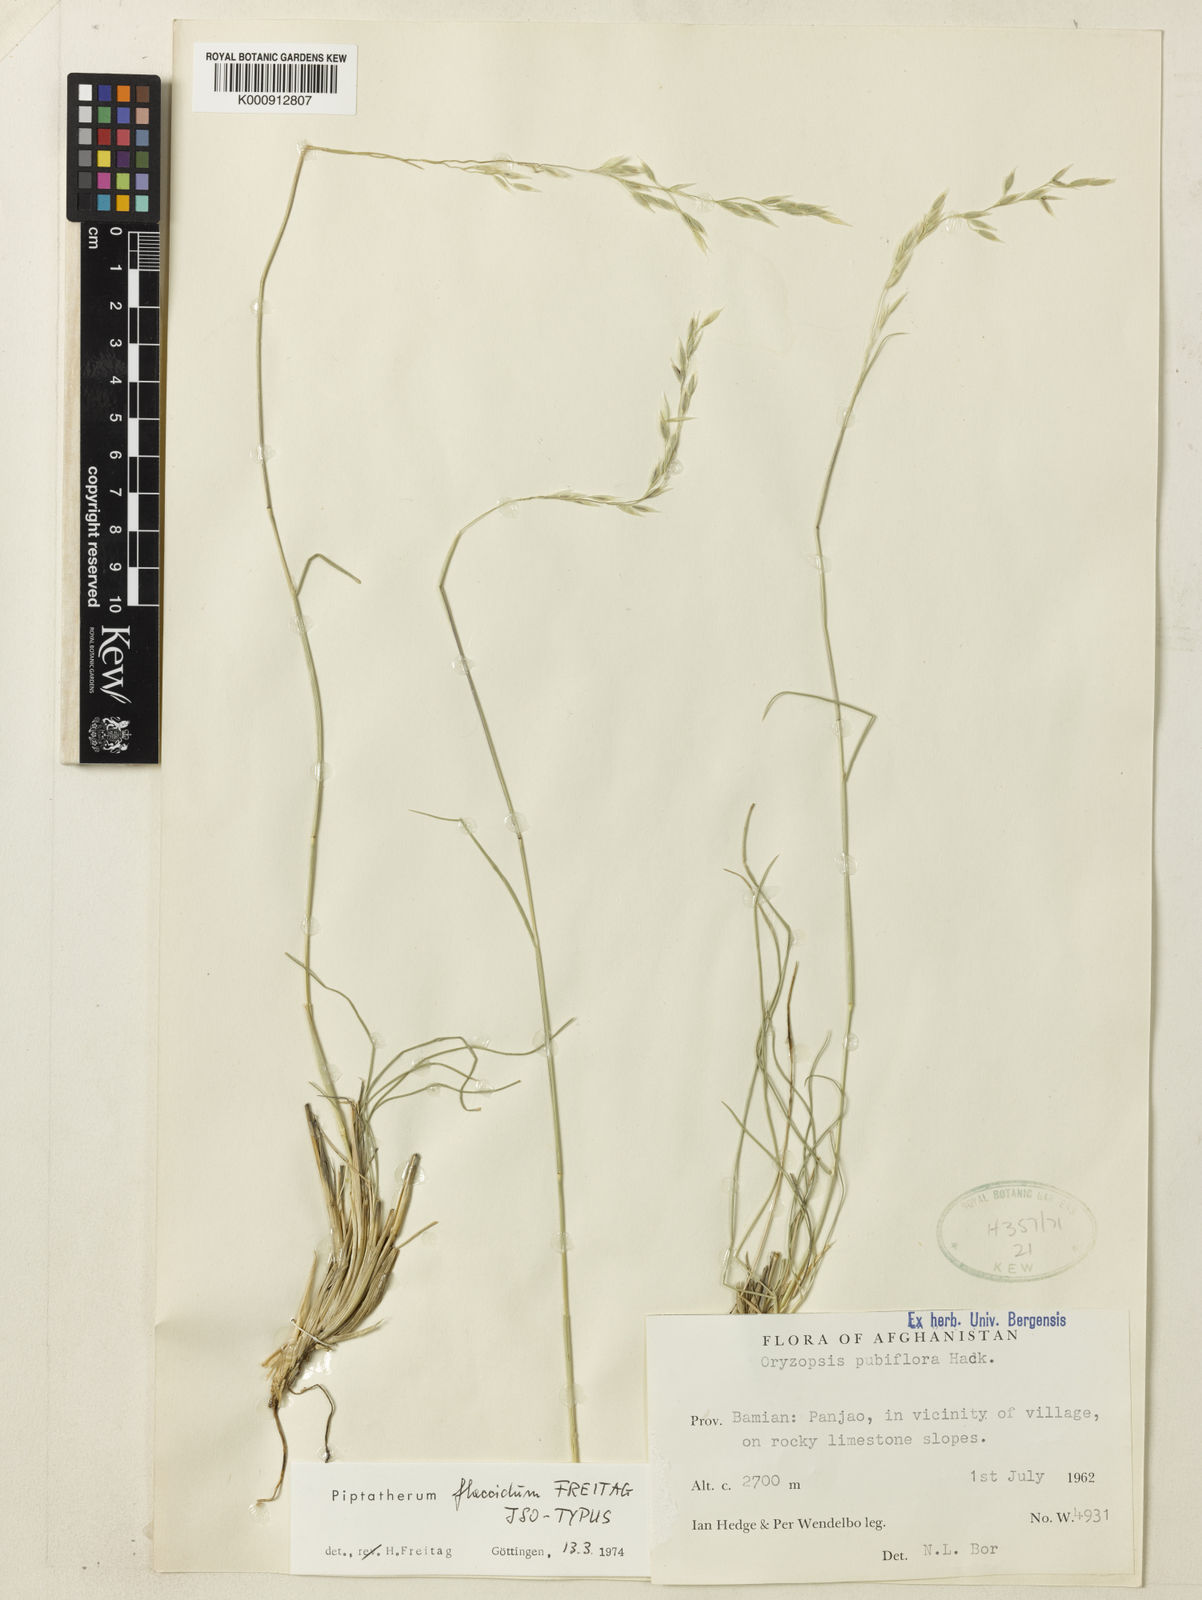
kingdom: Plantae
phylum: Tracheophyta
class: Liliopsida
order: Poales
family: Poaceae
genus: Piptatherum
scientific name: Piptatherum flaccidum
